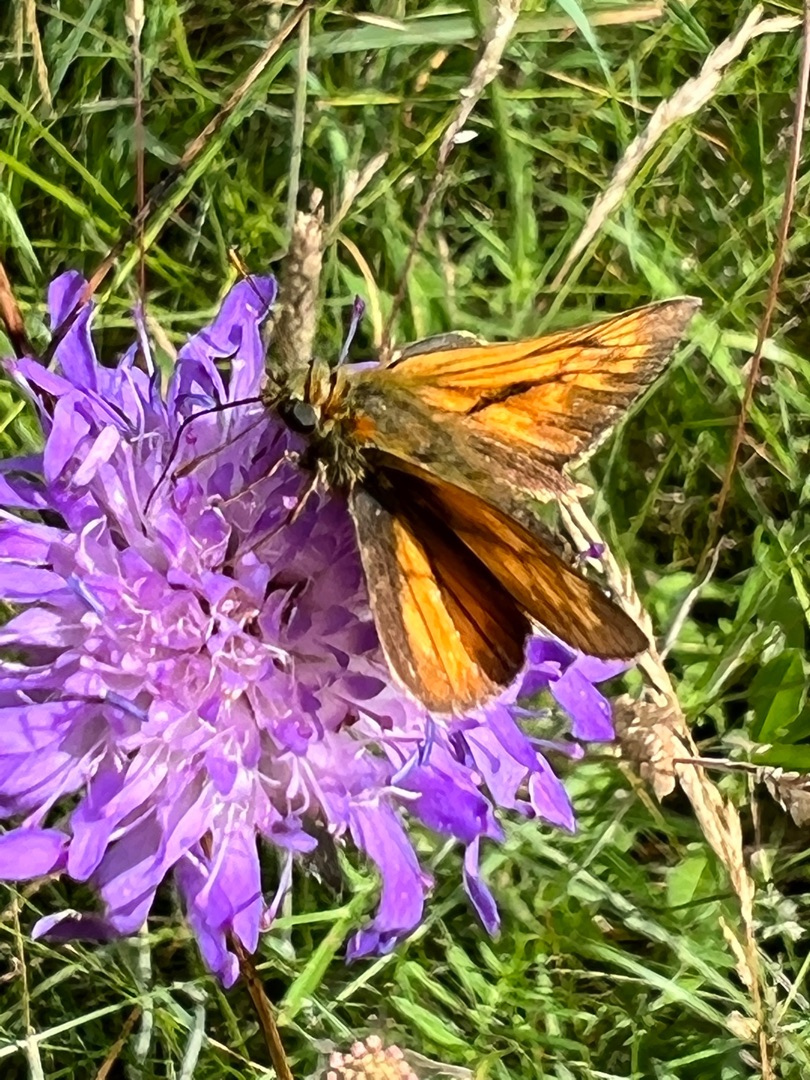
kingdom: Animalia
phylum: Arthropoda
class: Insecta
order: Lepidoptera
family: Hesperiidae
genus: Ochlodes
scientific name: Ochlodes venata
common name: Stor bredpande
